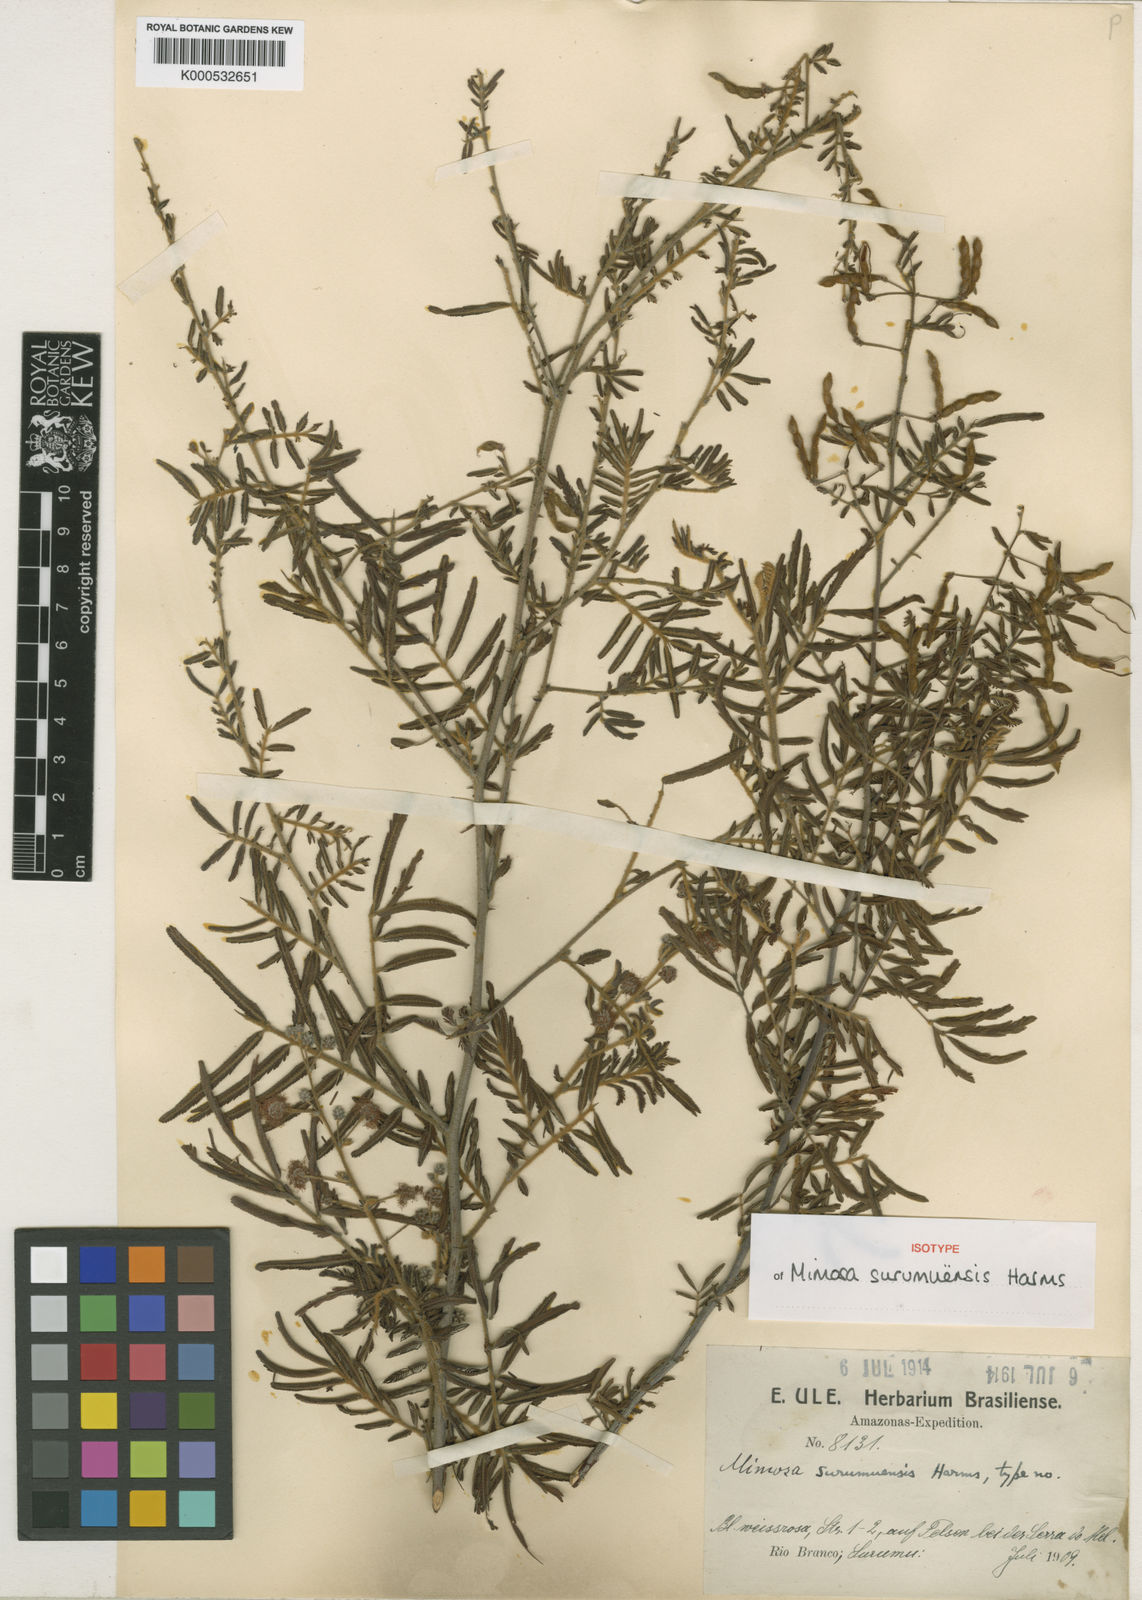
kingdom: Plantae
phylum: Tracheophyta
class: Magnoliopsida
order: Fabales
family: Fabaceae
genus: Mimosa
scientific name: Mimosa
